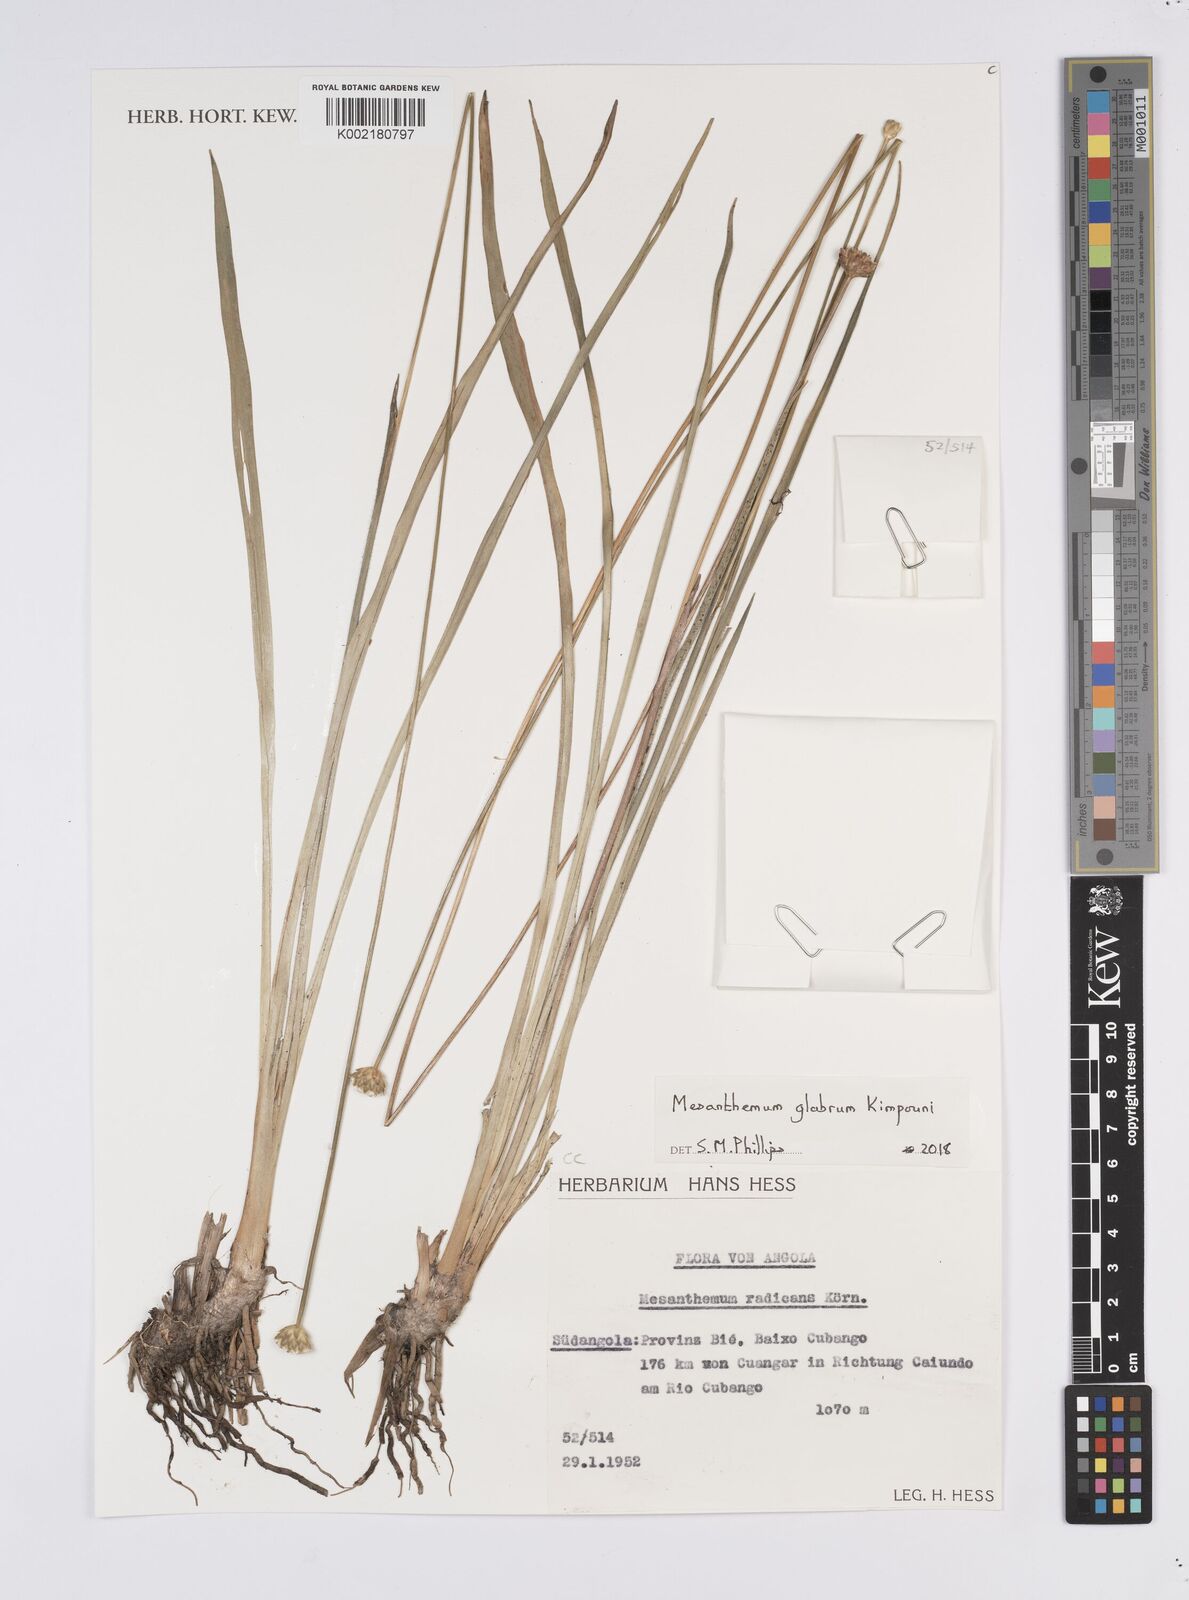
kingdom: Plantae
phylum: Tracheophyta
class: Liliopsida
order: Poales
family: Eriocaulaceae
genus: Mesanthemum
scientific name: Mesanthemum glabrum
